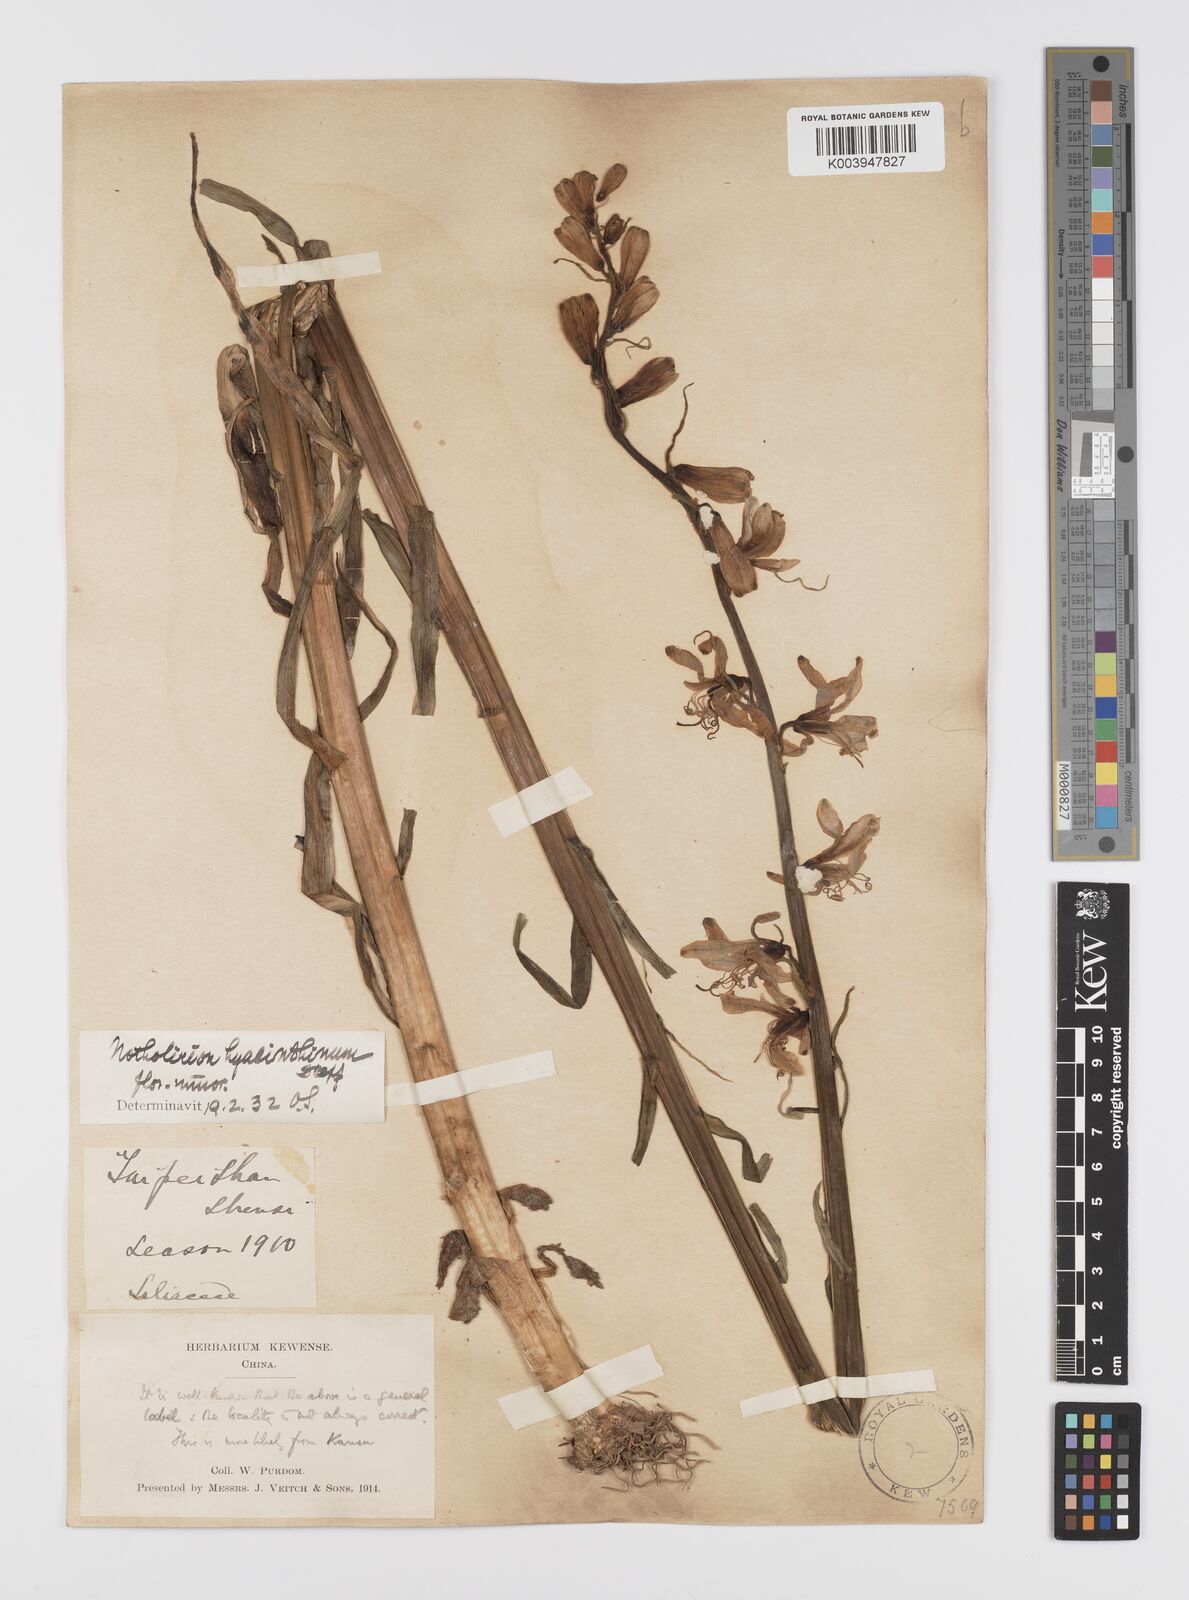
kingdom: Plantae
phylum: Tracheophyta
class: Liliopsida
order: Liliales
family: Liliaceae
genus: Notholirion
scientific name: Notholirion bulbuliferum
